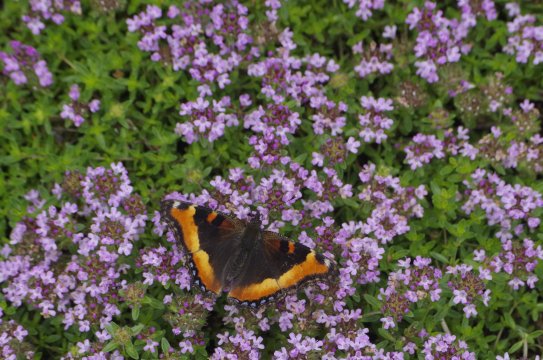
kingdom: Animalia
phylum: Arthropoda
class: Insecta
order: Lepidoptera
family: Nymphalidae
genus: Aglais
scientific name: Aglais milberti
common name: Milbert's Tortoiseshell
